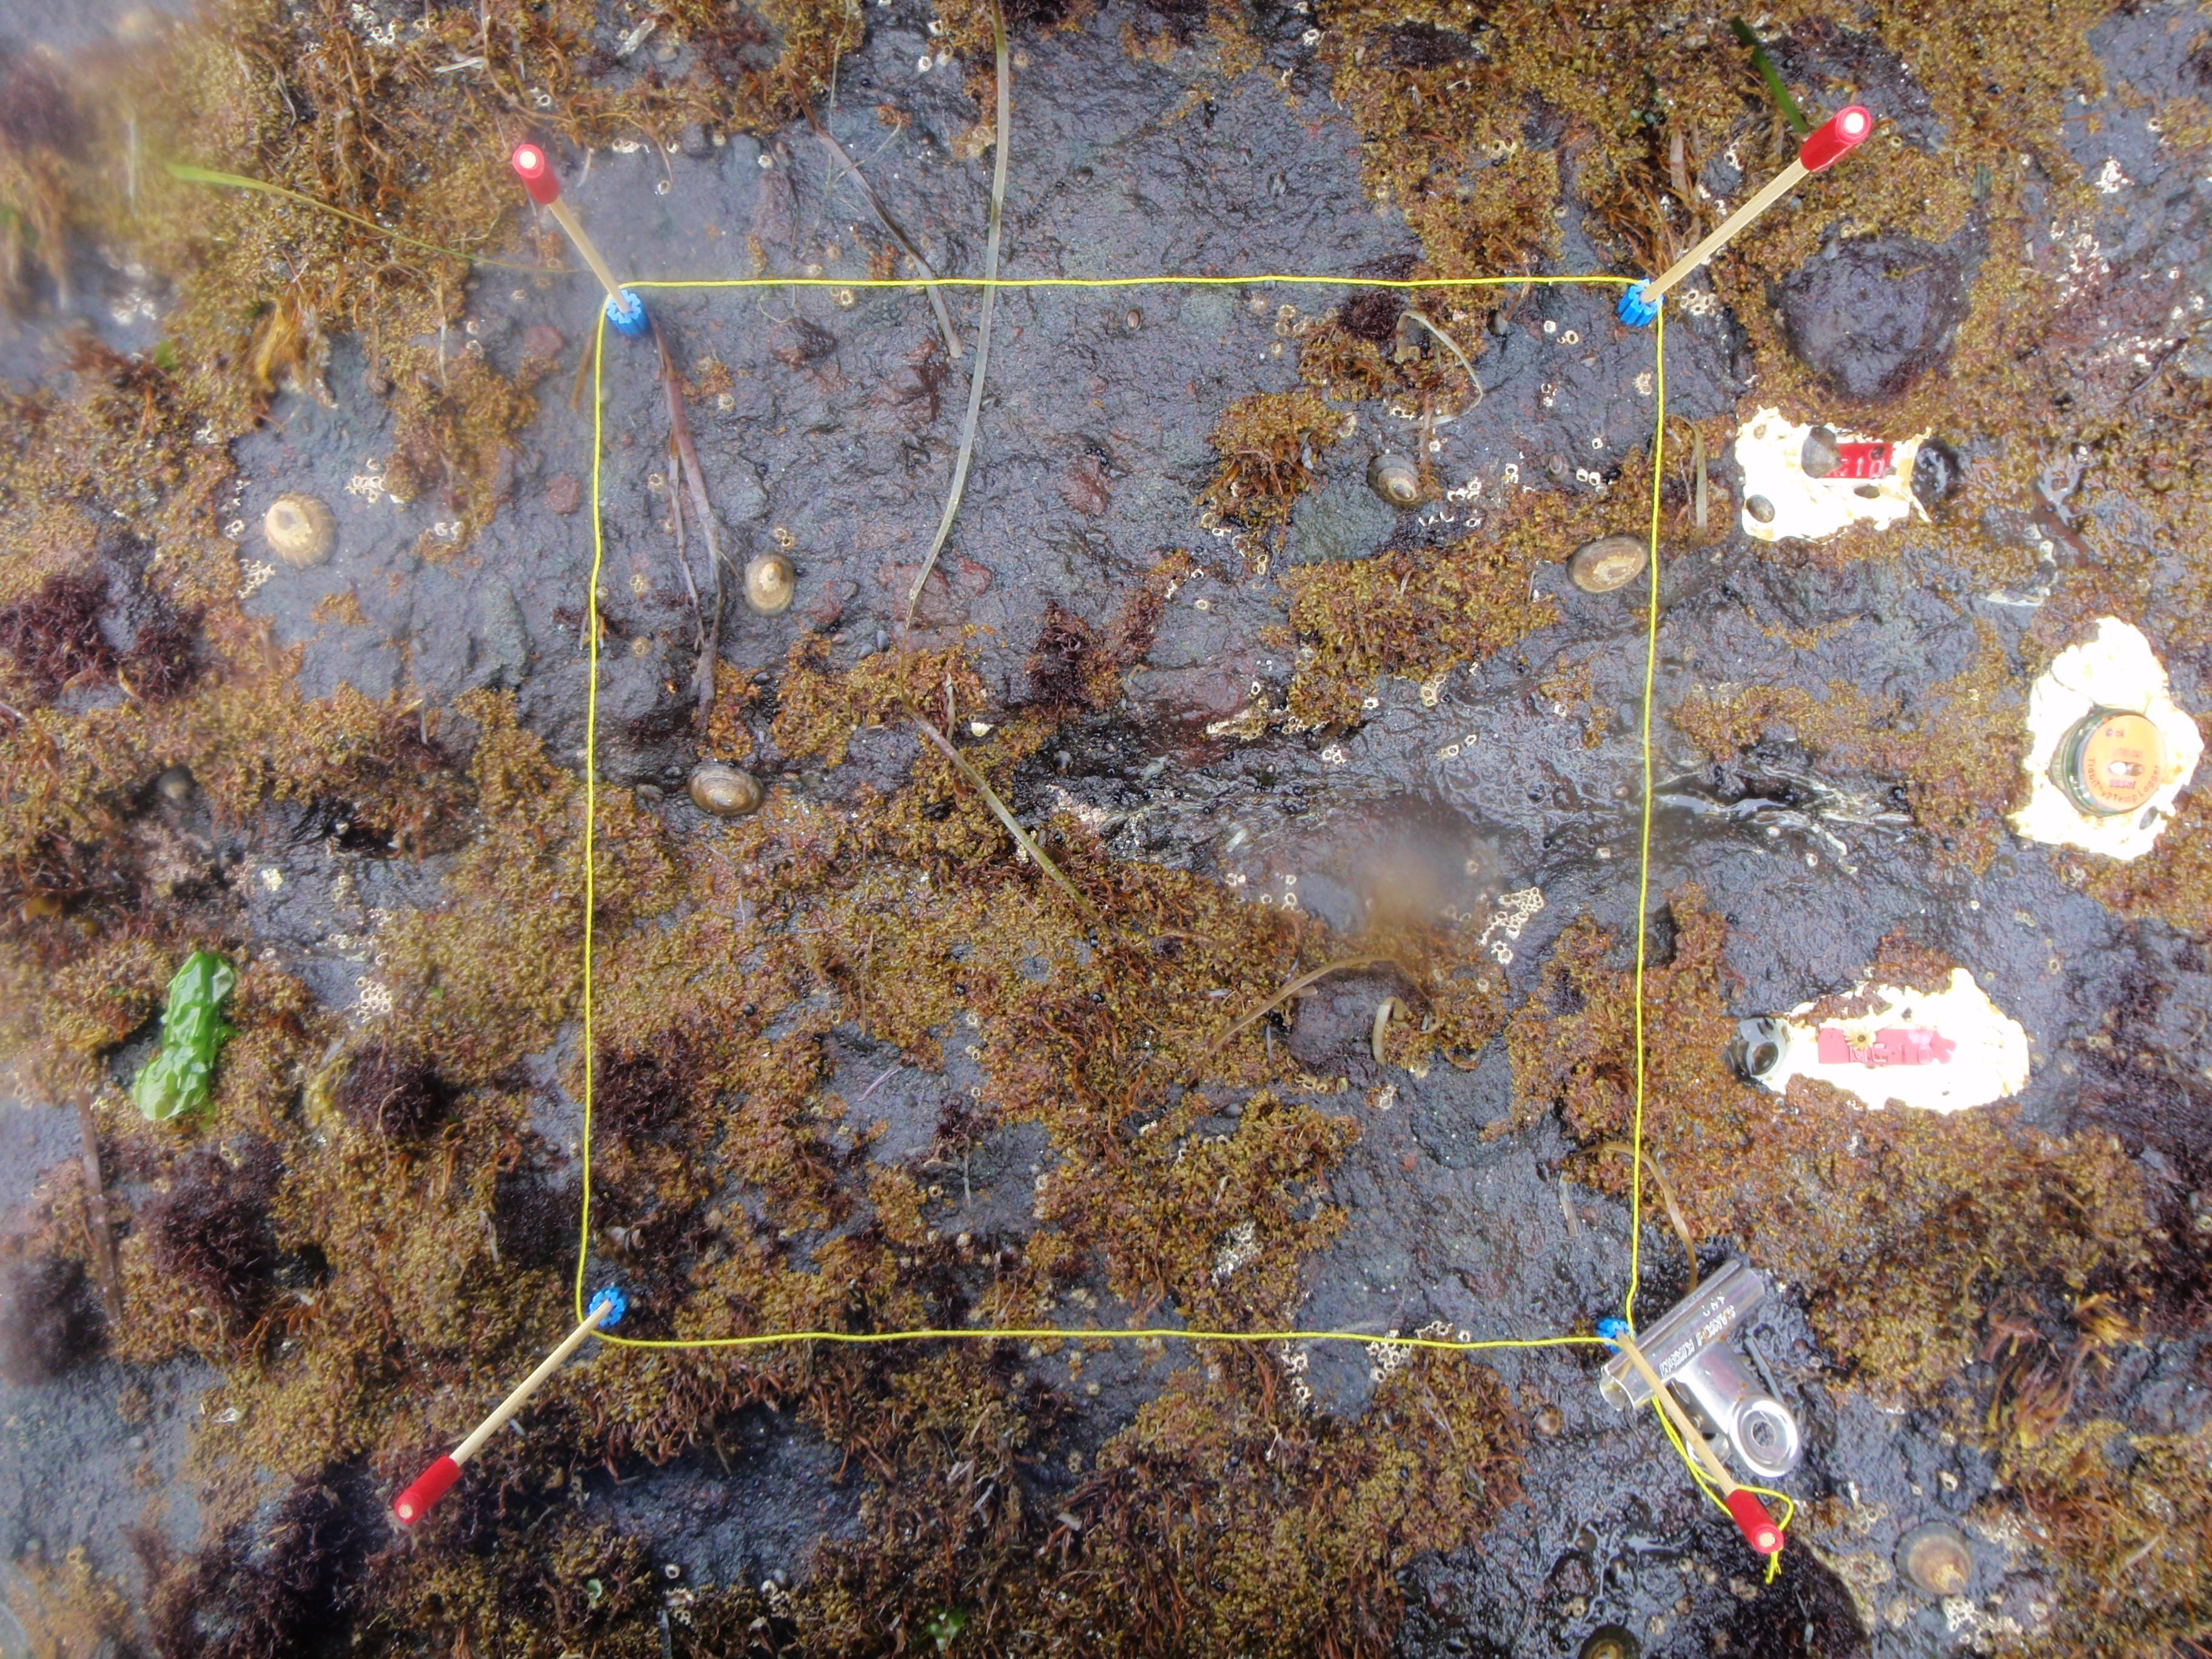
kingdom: Chromista
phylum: Ochrophyta
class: Phaeophyceae
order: Scytosiphonales
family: Scytosiphonaceae
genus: Analipus
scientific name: Analipus japonicus
